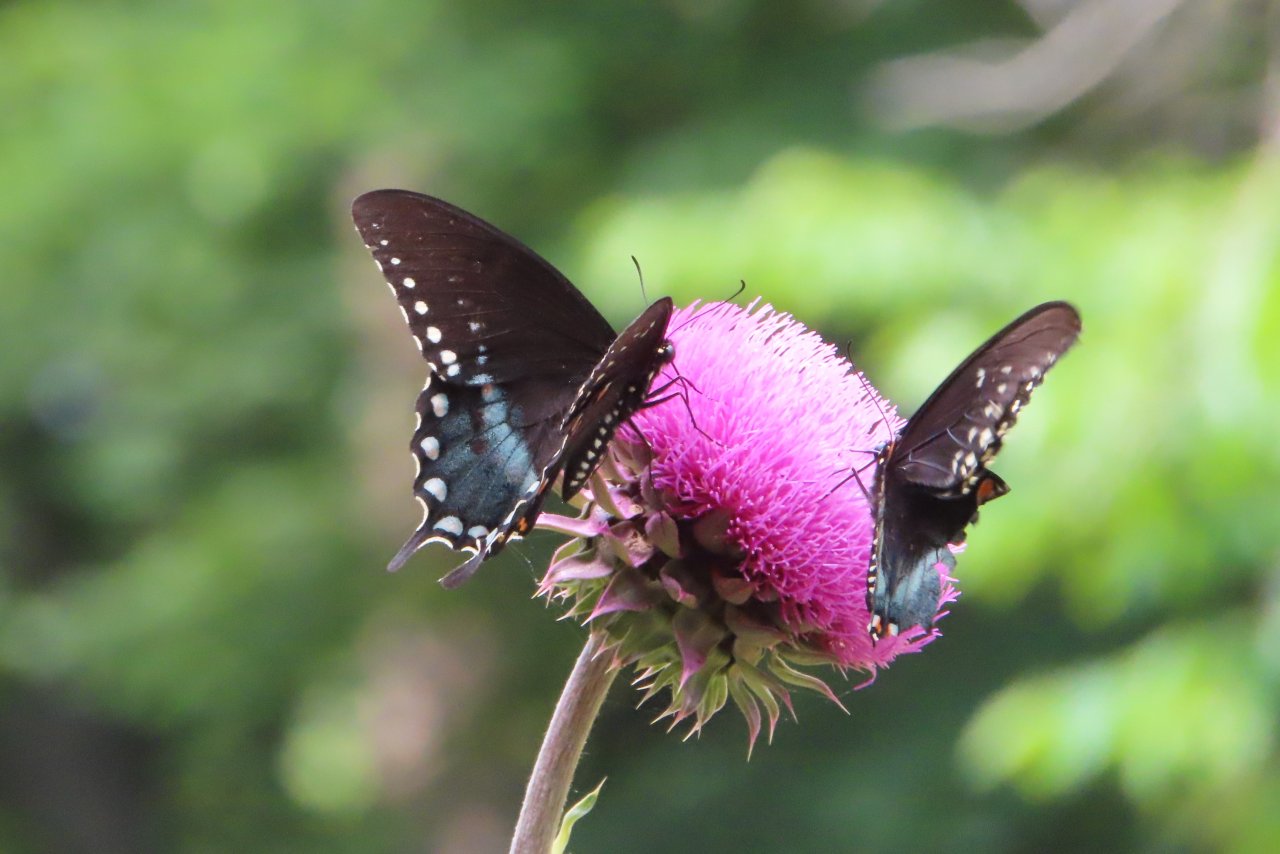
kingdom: Animalia
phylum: Arthropoda
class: Insecta
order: Lepidoptera
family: Papilionidae
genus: Pterourus
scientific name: Pterourus troilus
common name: Spicebush Swallowtail
